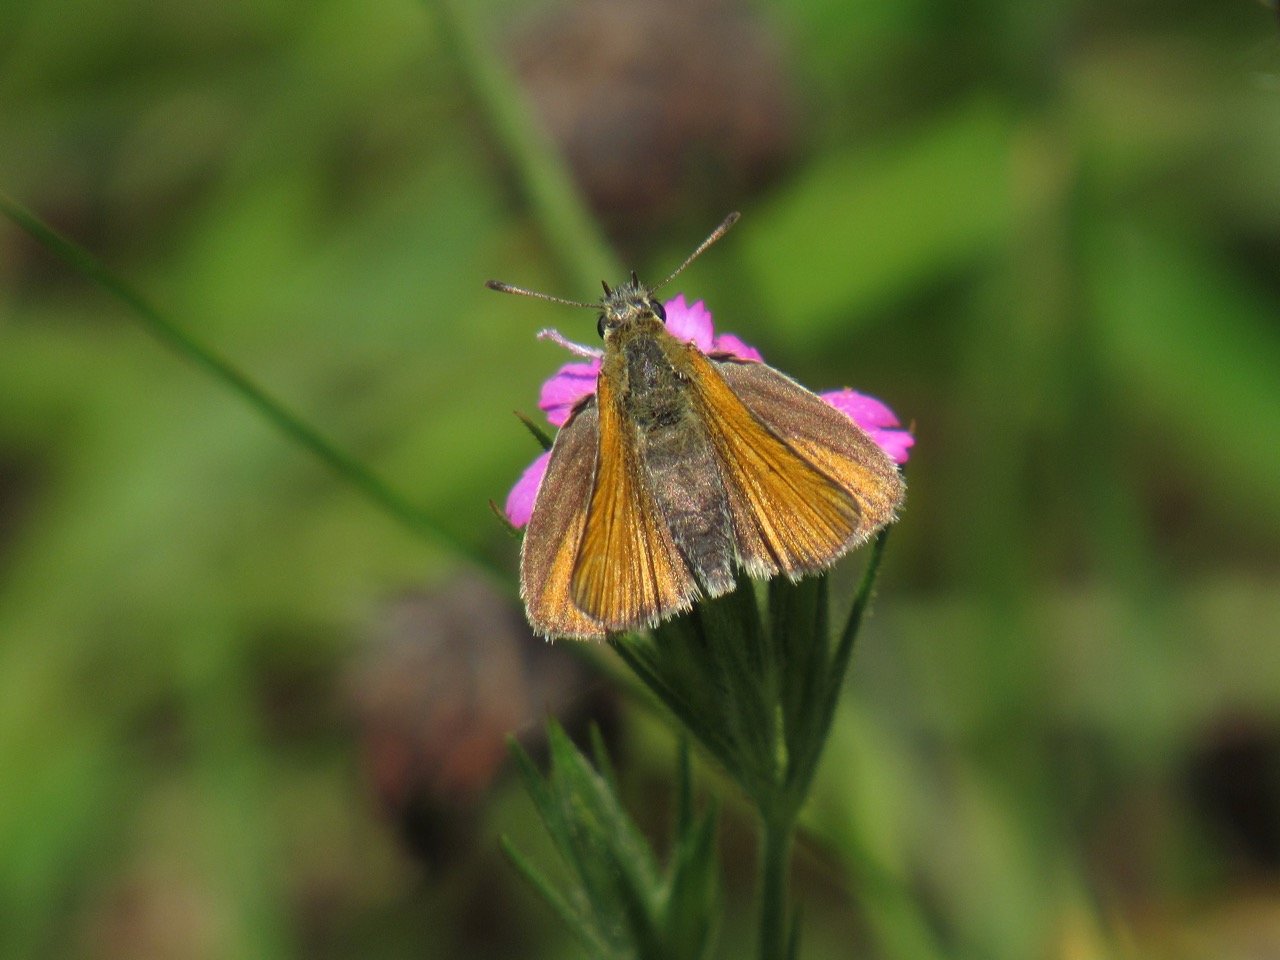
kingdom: Animalia
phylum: Arthropoda
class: Insecta
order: Lepidoptera
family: Hesperiidae
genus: Thymelicus
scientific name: Thymelicus lineola
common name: European Skipper
